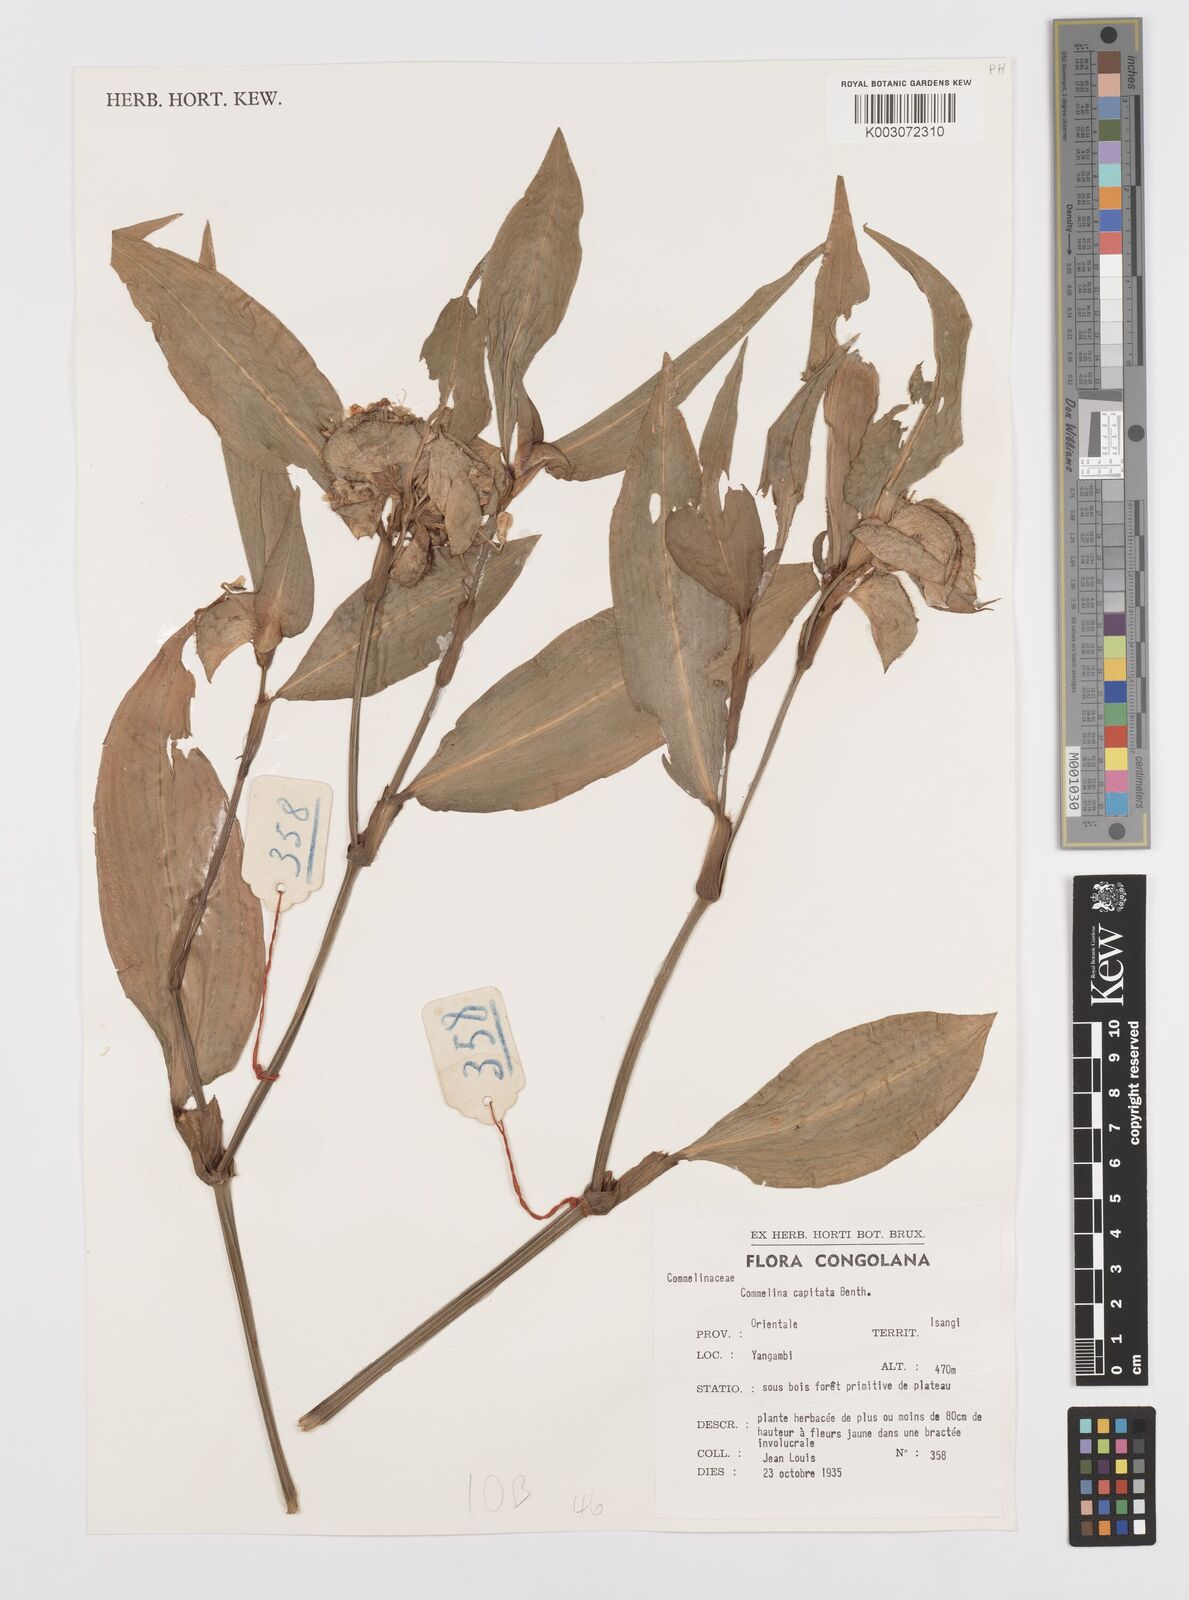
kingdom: Plantae
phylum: Tracheophyta
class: Liliopsida
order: Commelinales
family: Commelinaceae
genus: Commelina
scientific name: Commelina capitata
